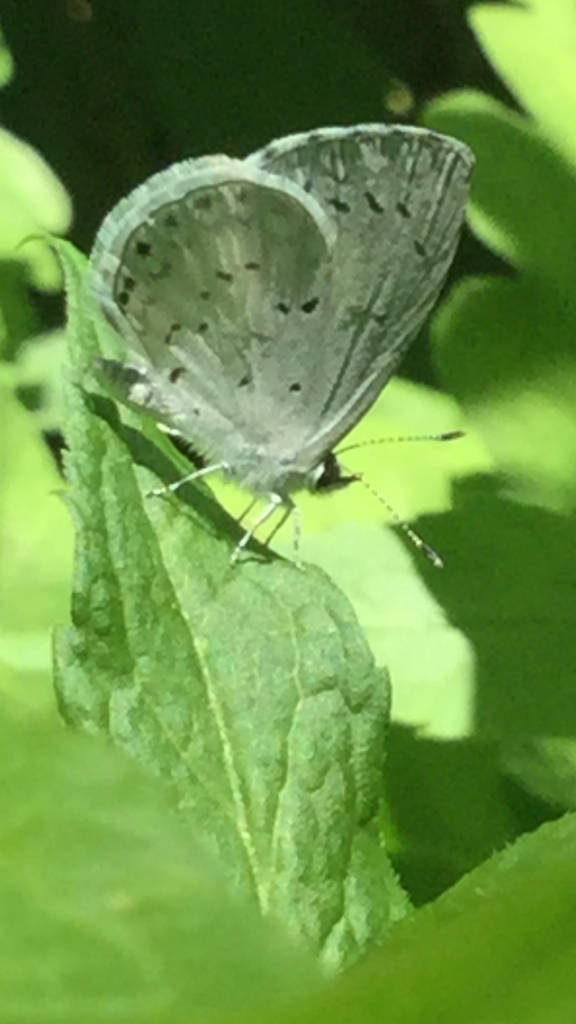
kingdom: Animalia
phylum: Arthropoda
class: Insecta
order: Lepidoptera
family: Lycaenidae
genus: Celastrina
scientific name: Celastrina
